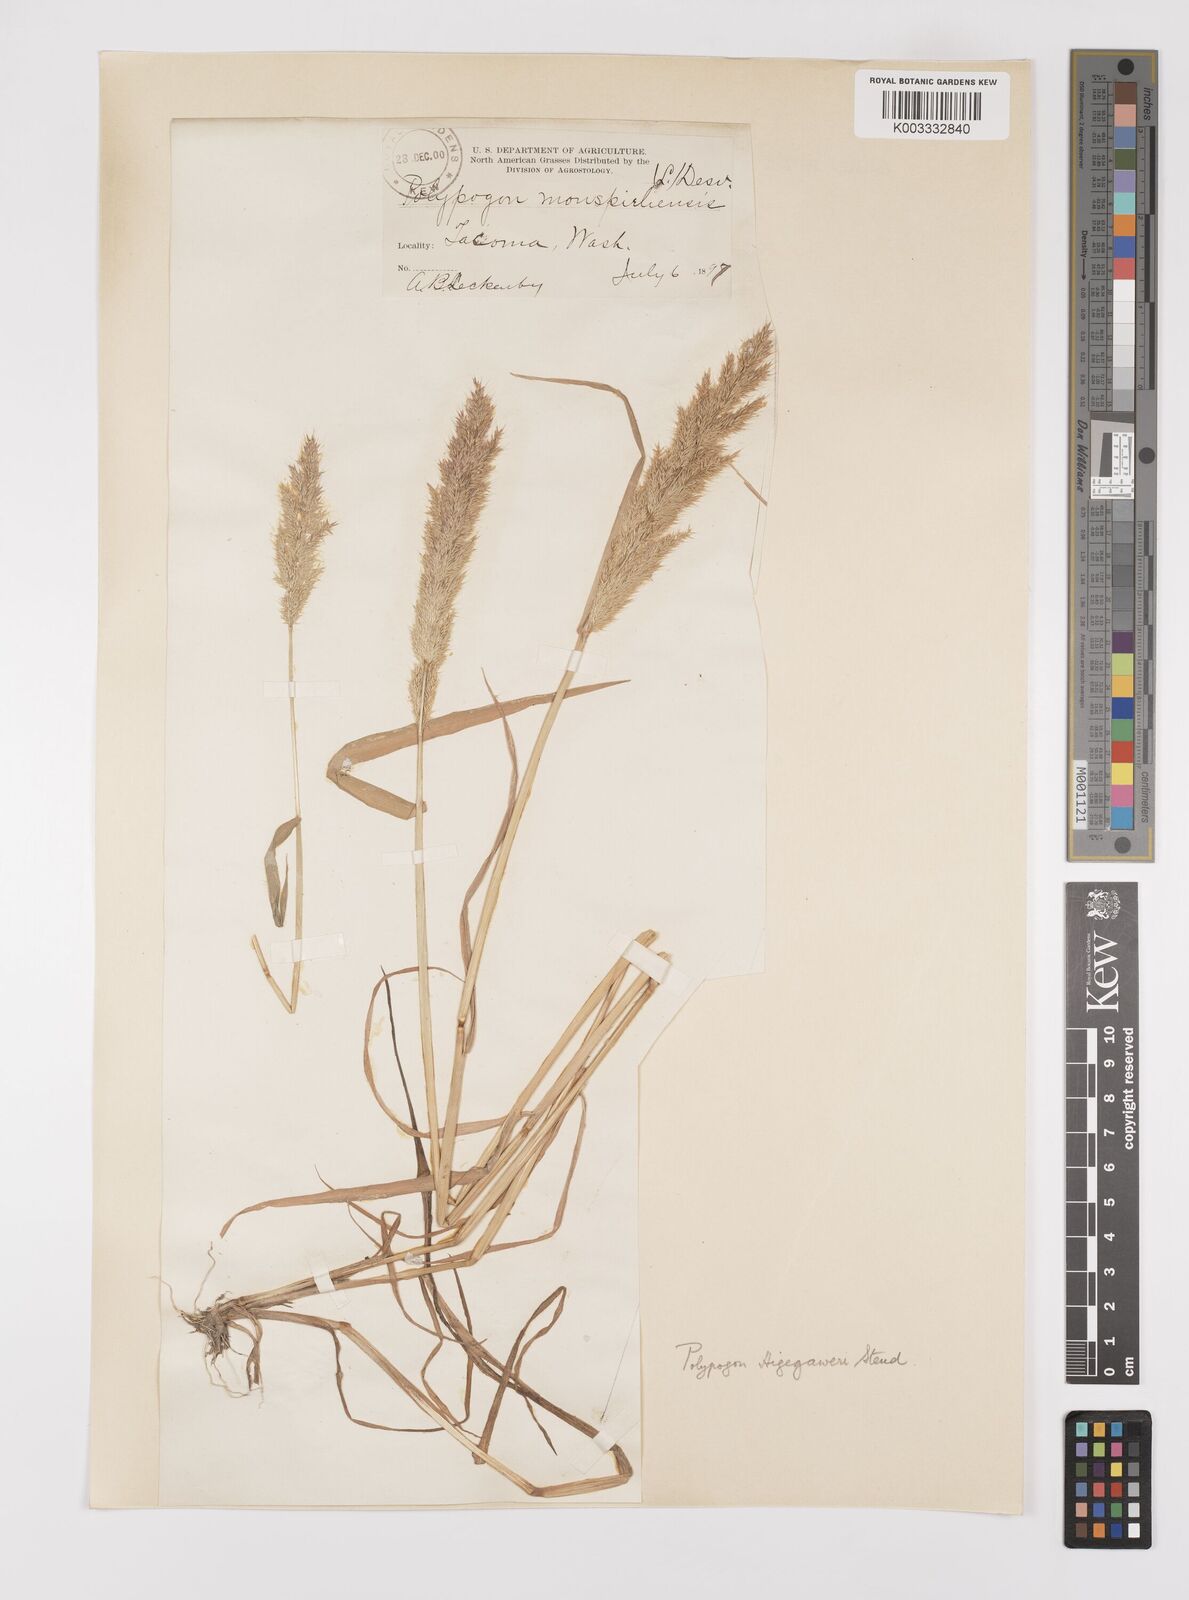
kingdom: Plantae
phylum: Tracheophyta
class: Liliopsida
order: Poales
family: Poaceae
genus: Polypogon
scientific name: Polypogon interruptus
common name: Ditch polypogon
